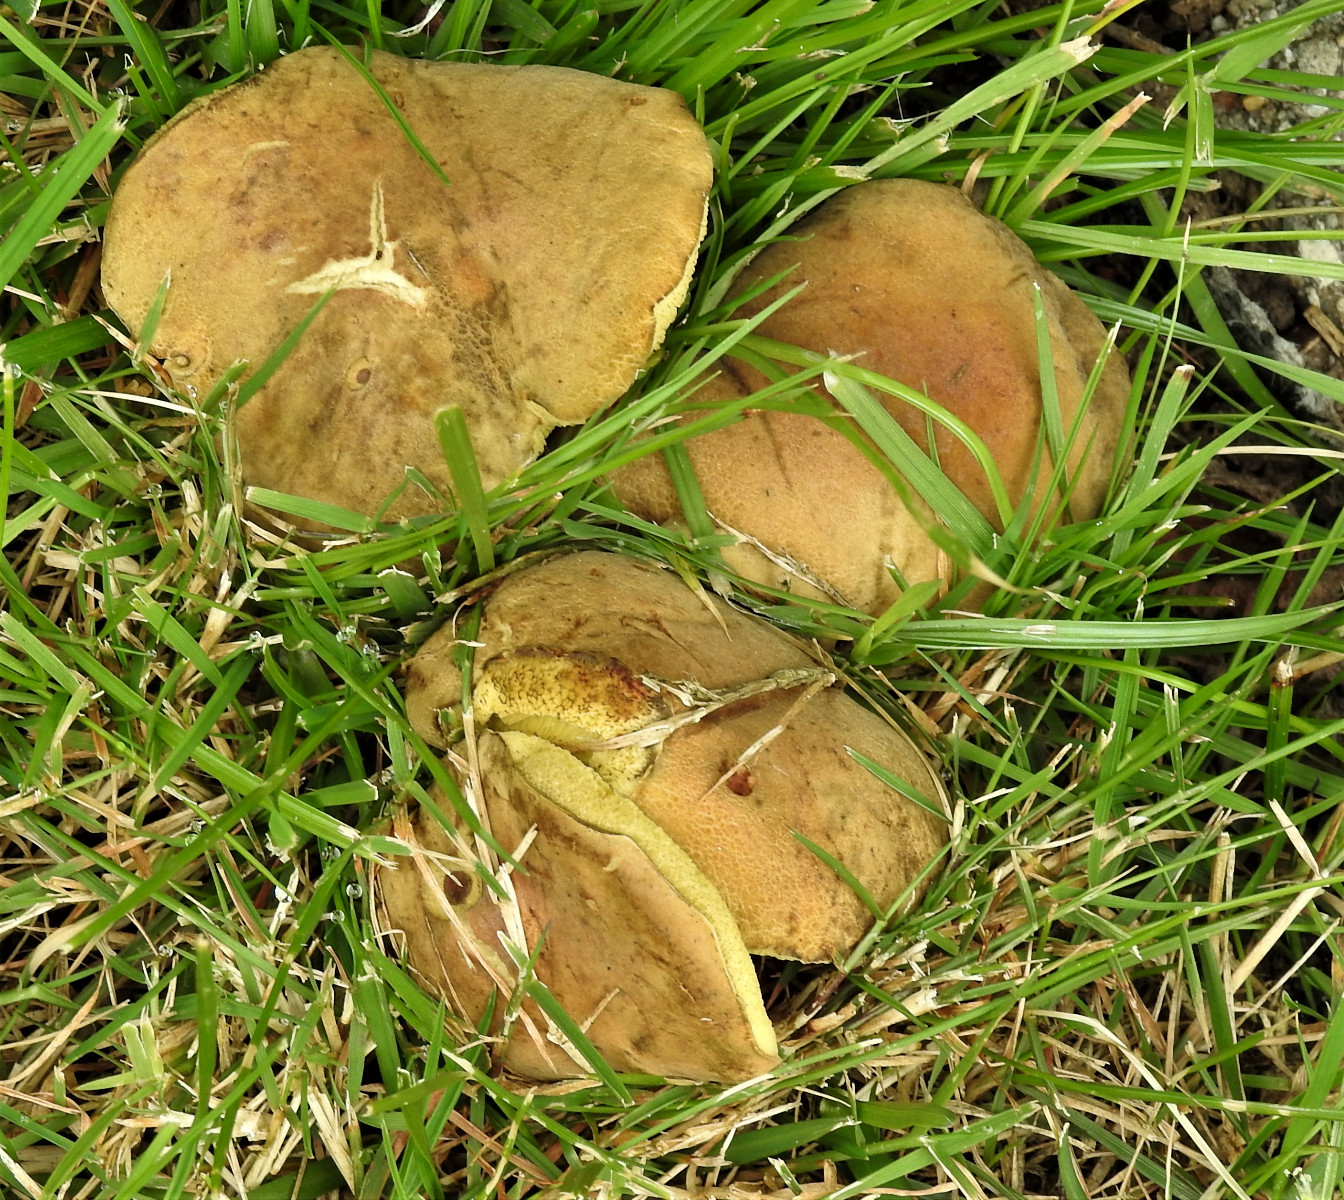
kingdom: Fungi
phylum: Basidiomycota
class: Agaricomycetes
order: Boletales
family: Boletaceae
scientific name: Boletaceae
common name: rørhatfamilien
